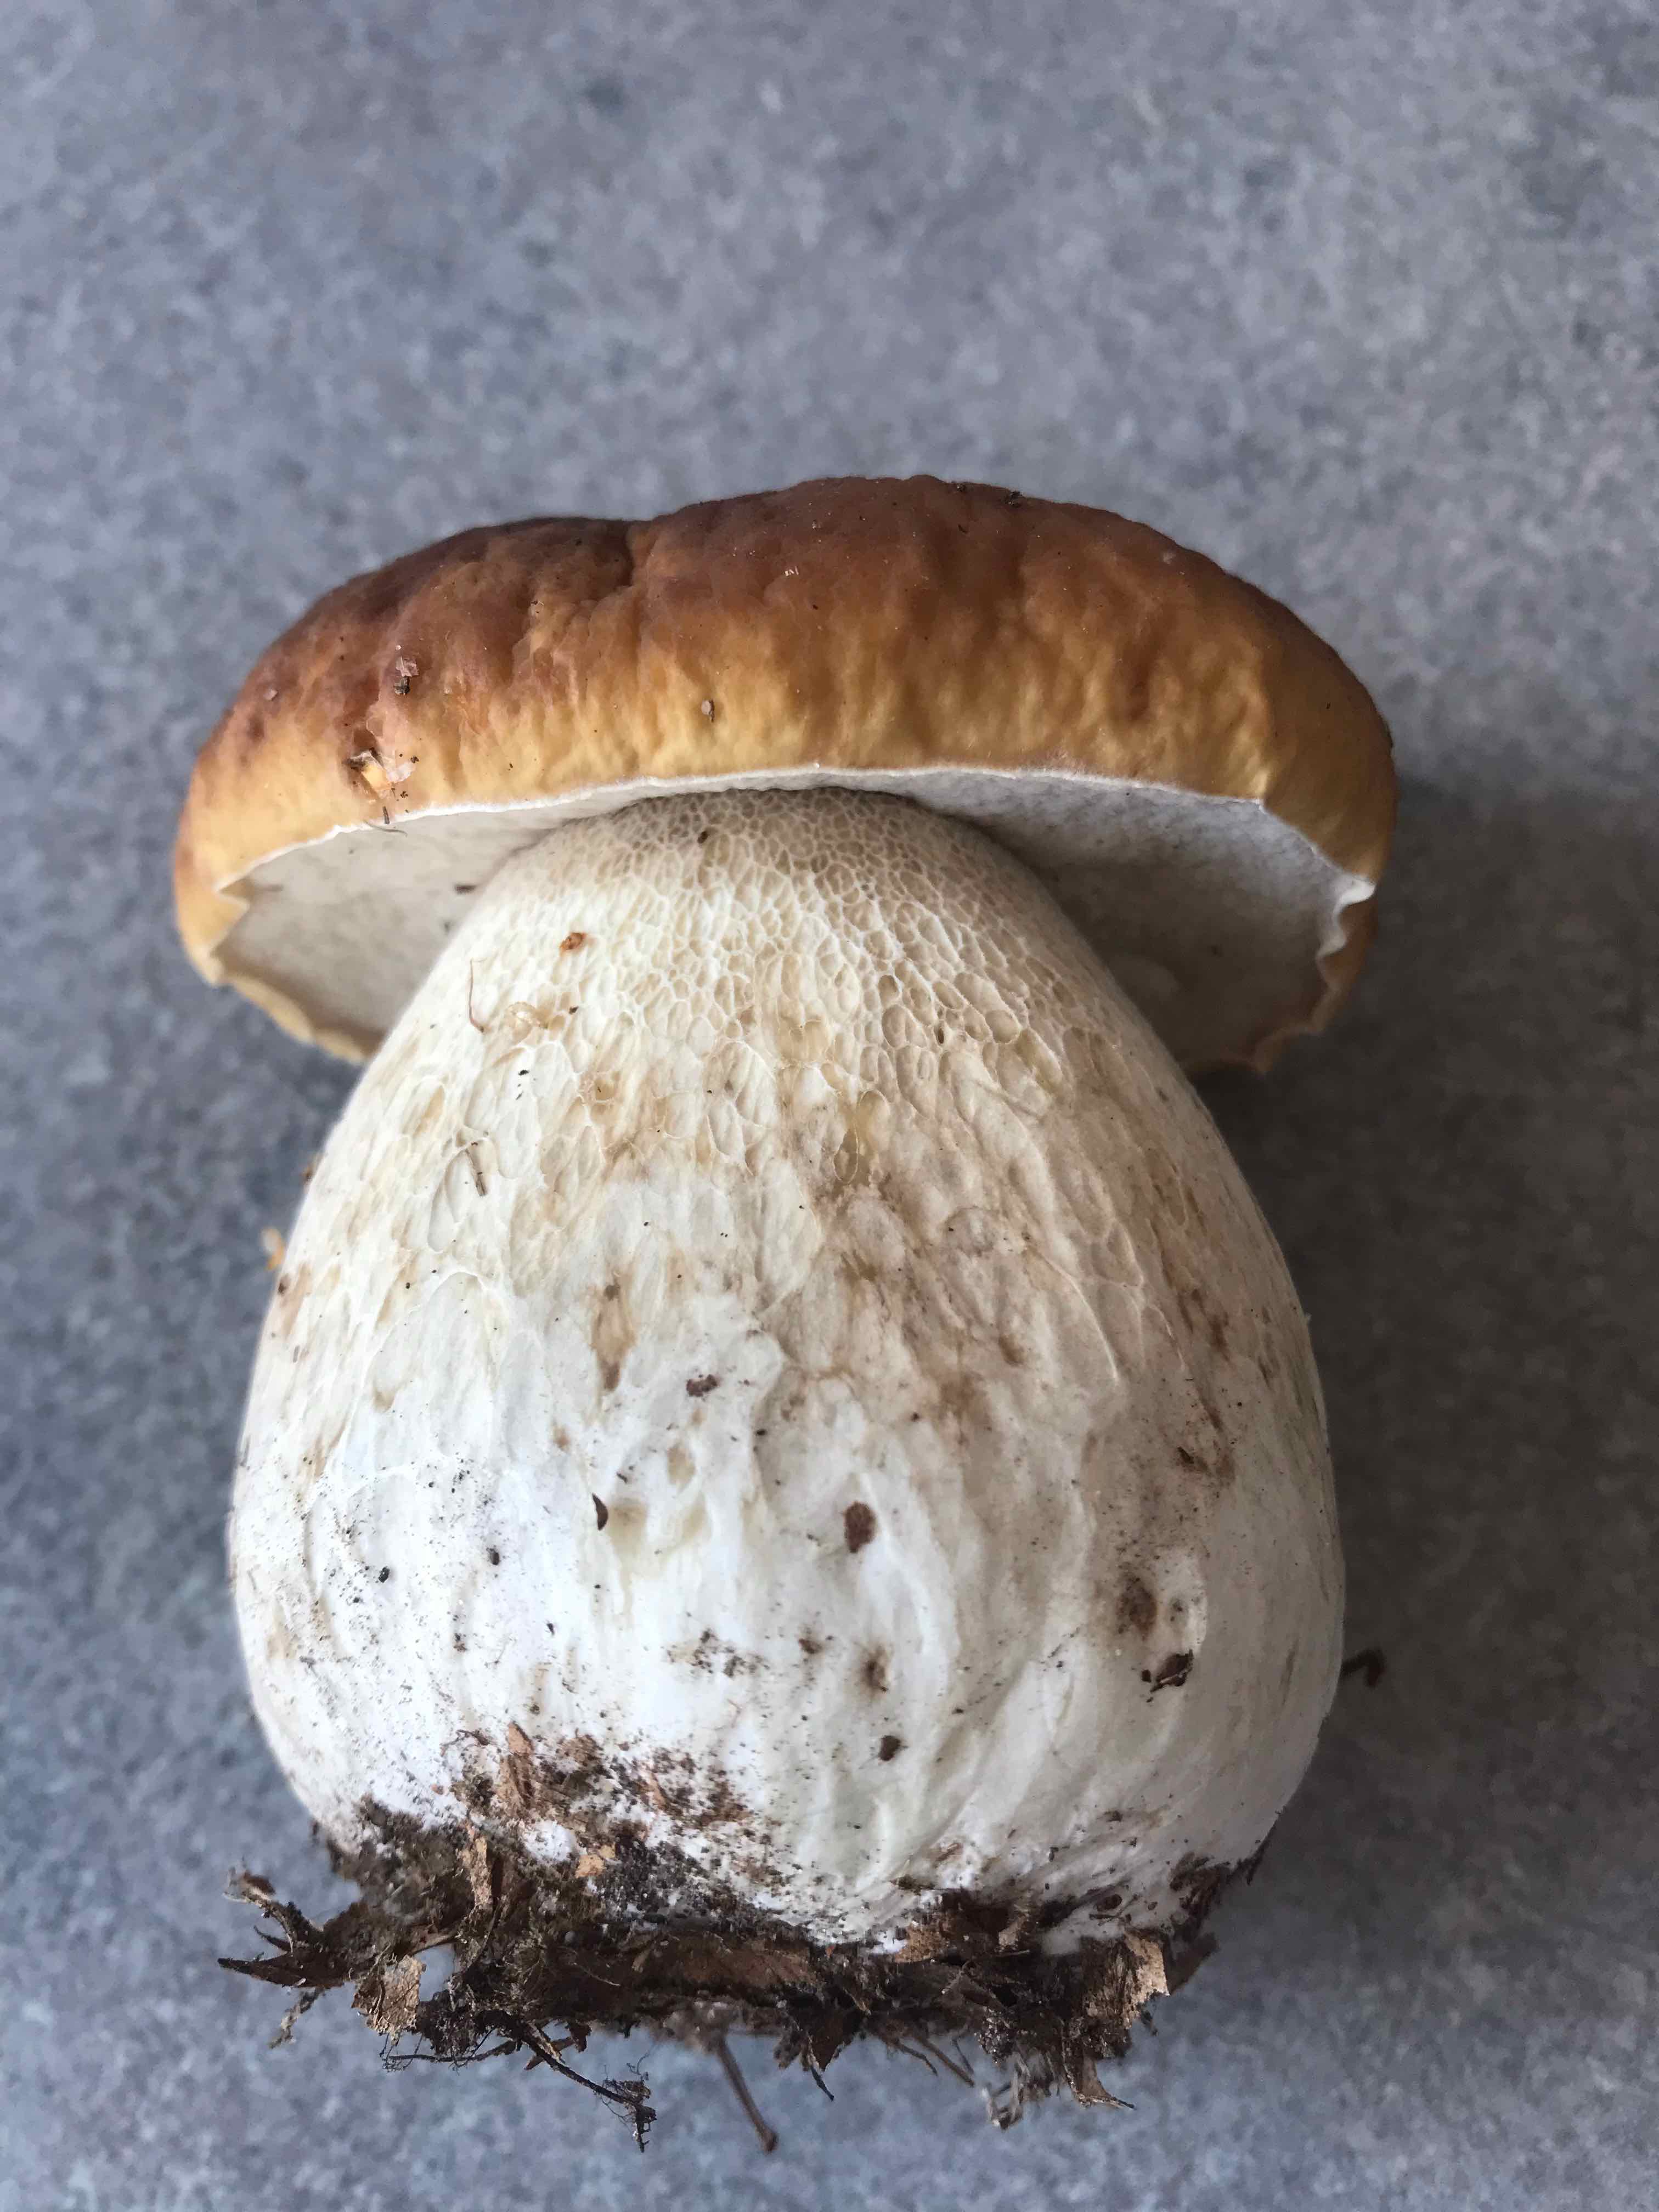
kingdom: Fungi
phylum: Basidiomycota
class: Agaricomycetes
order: Boletales
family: Boletaceae
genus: Boletus
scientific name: Boletus edulis
